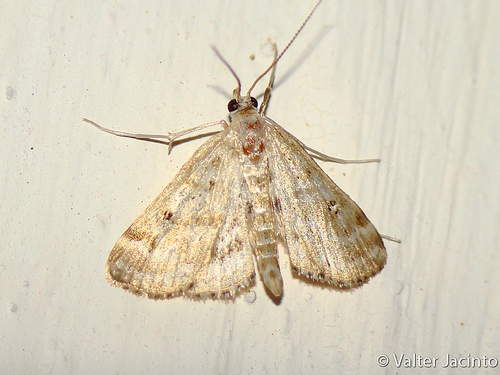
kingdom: Animalia
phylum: Arthropoda
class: Insecta
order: Lepidoptera
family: Crambidae
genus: Parapoynx
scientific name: Parapoynx stratiotata
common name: Ringed china-mark
